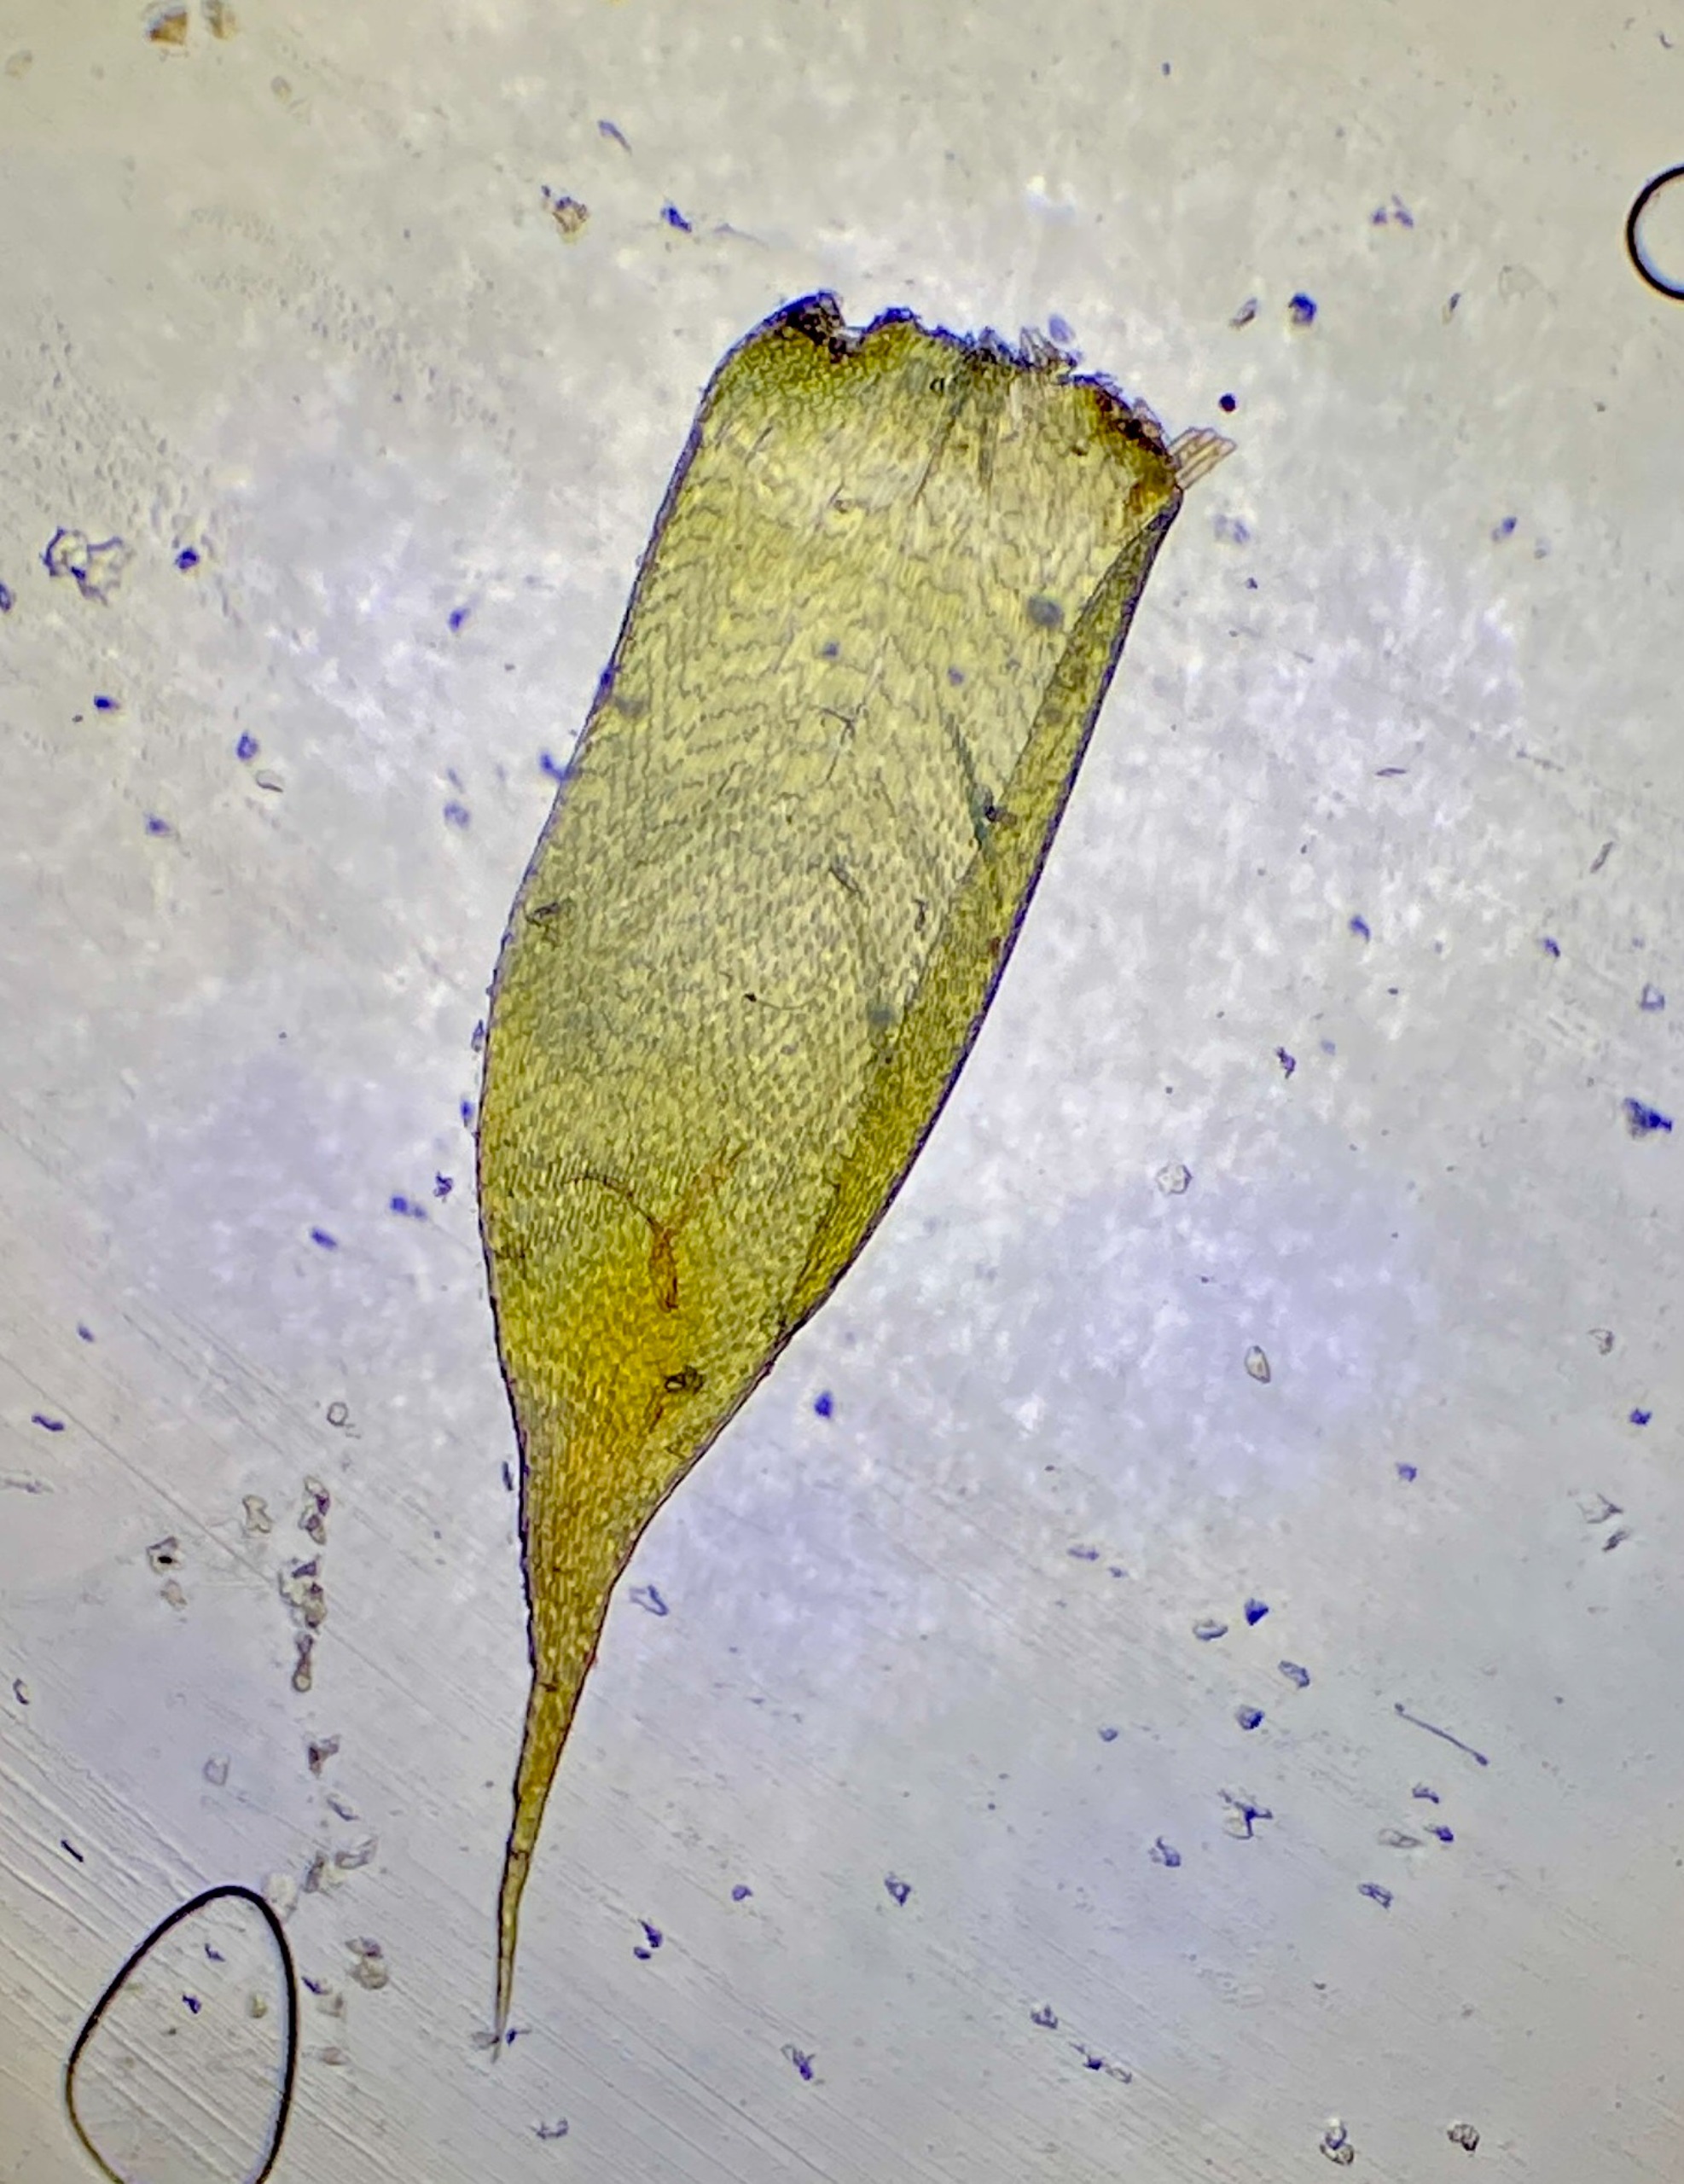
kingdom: Plantae
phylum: Bryophyta
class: Bryopsida
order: Hypnales
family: Hypnaceae
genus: Hypnum
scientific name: Hypnum
